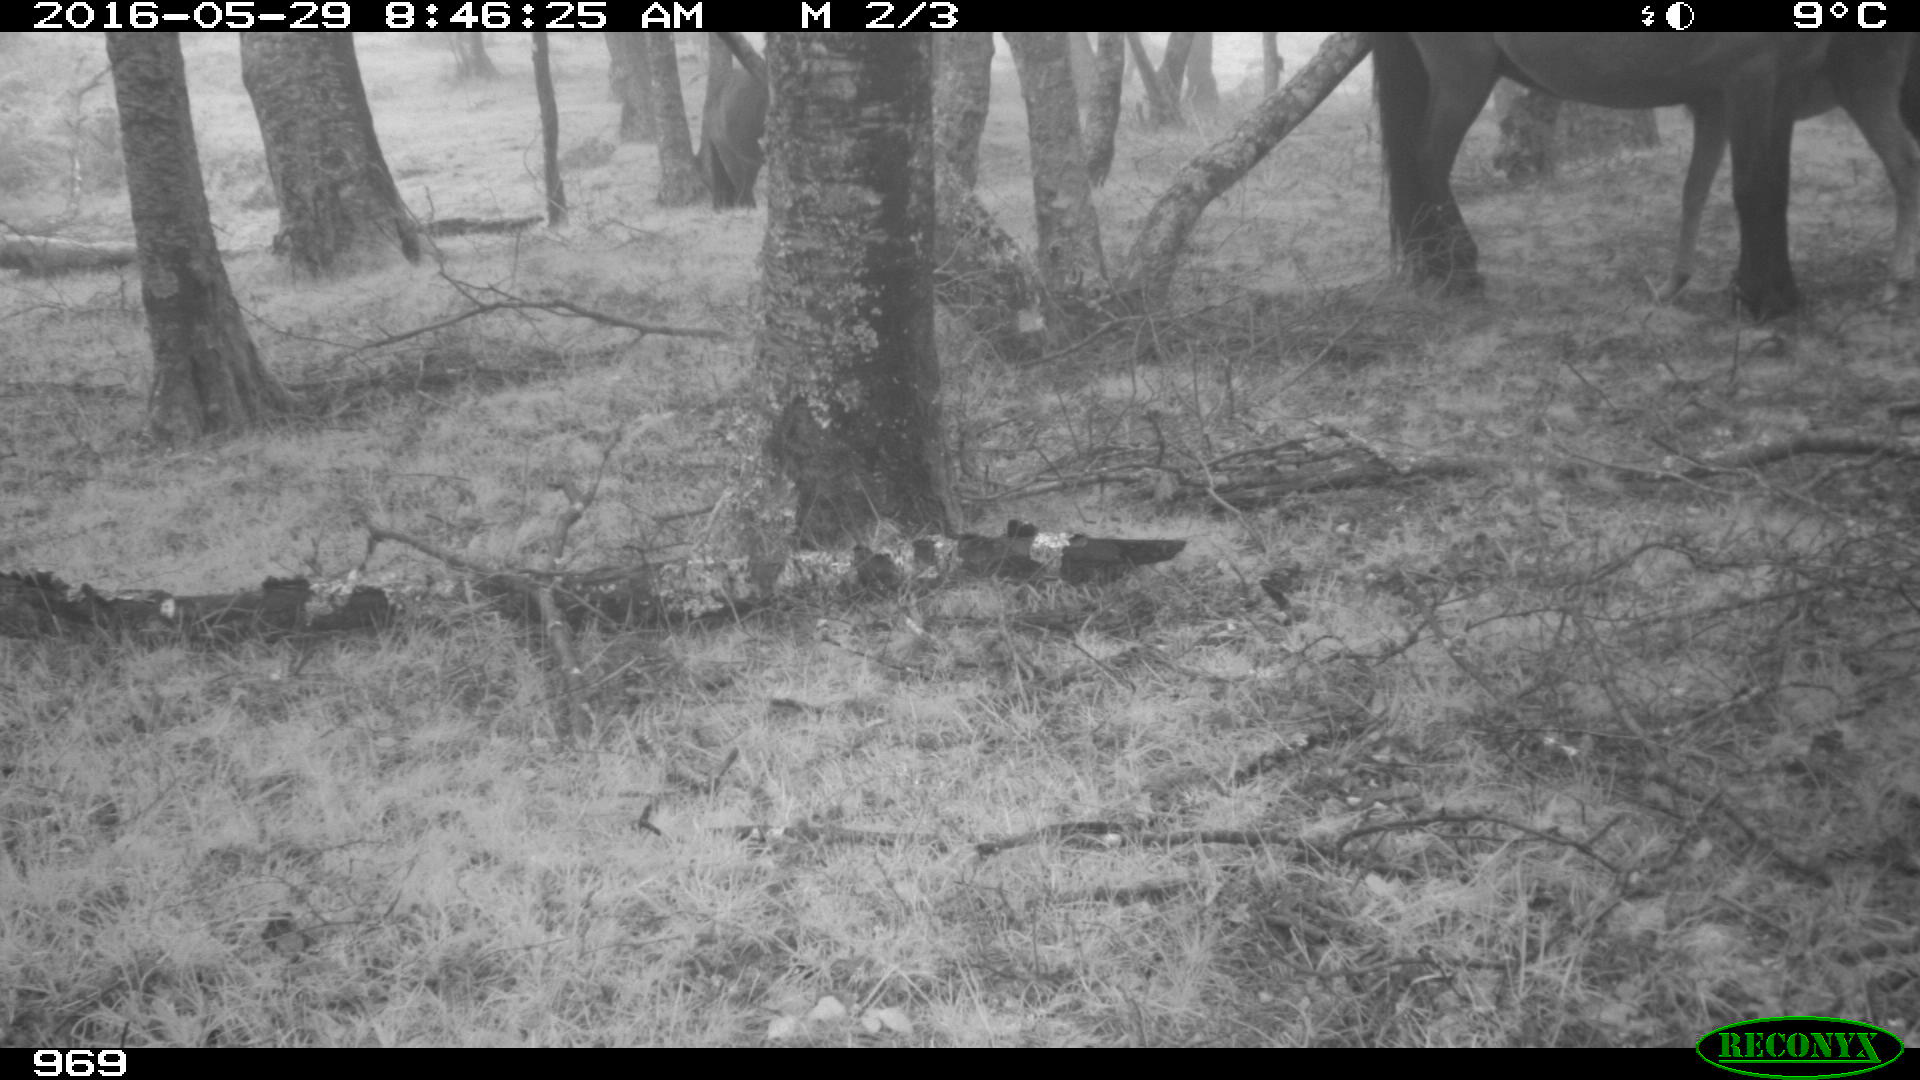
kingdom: Animalia
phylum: Chordata
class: Mammalia
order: Perissodactyla
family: Equidae
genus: Equus
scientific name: Equus caballus
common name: Horse
